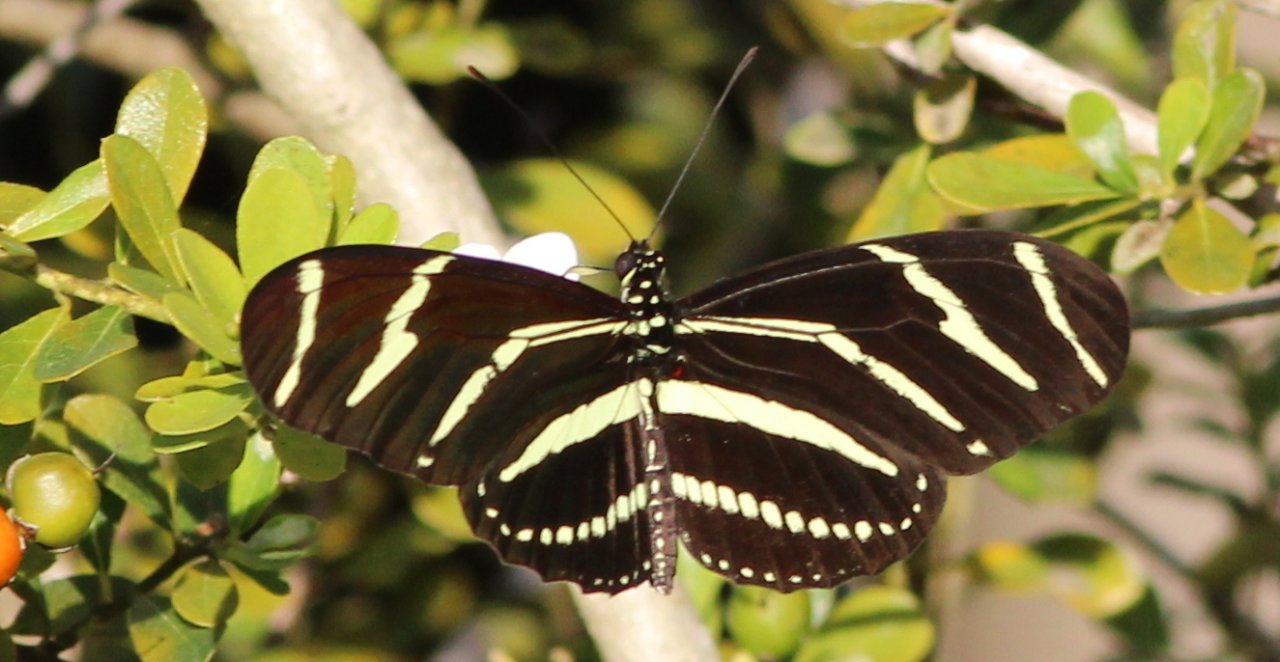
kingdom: Animalia
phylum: Arthropoda
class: Insecta
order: Lepidoptera
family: Nymphalidae
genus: Heliconius
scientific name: Heliconius charithonia
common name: Zebra Longwing
